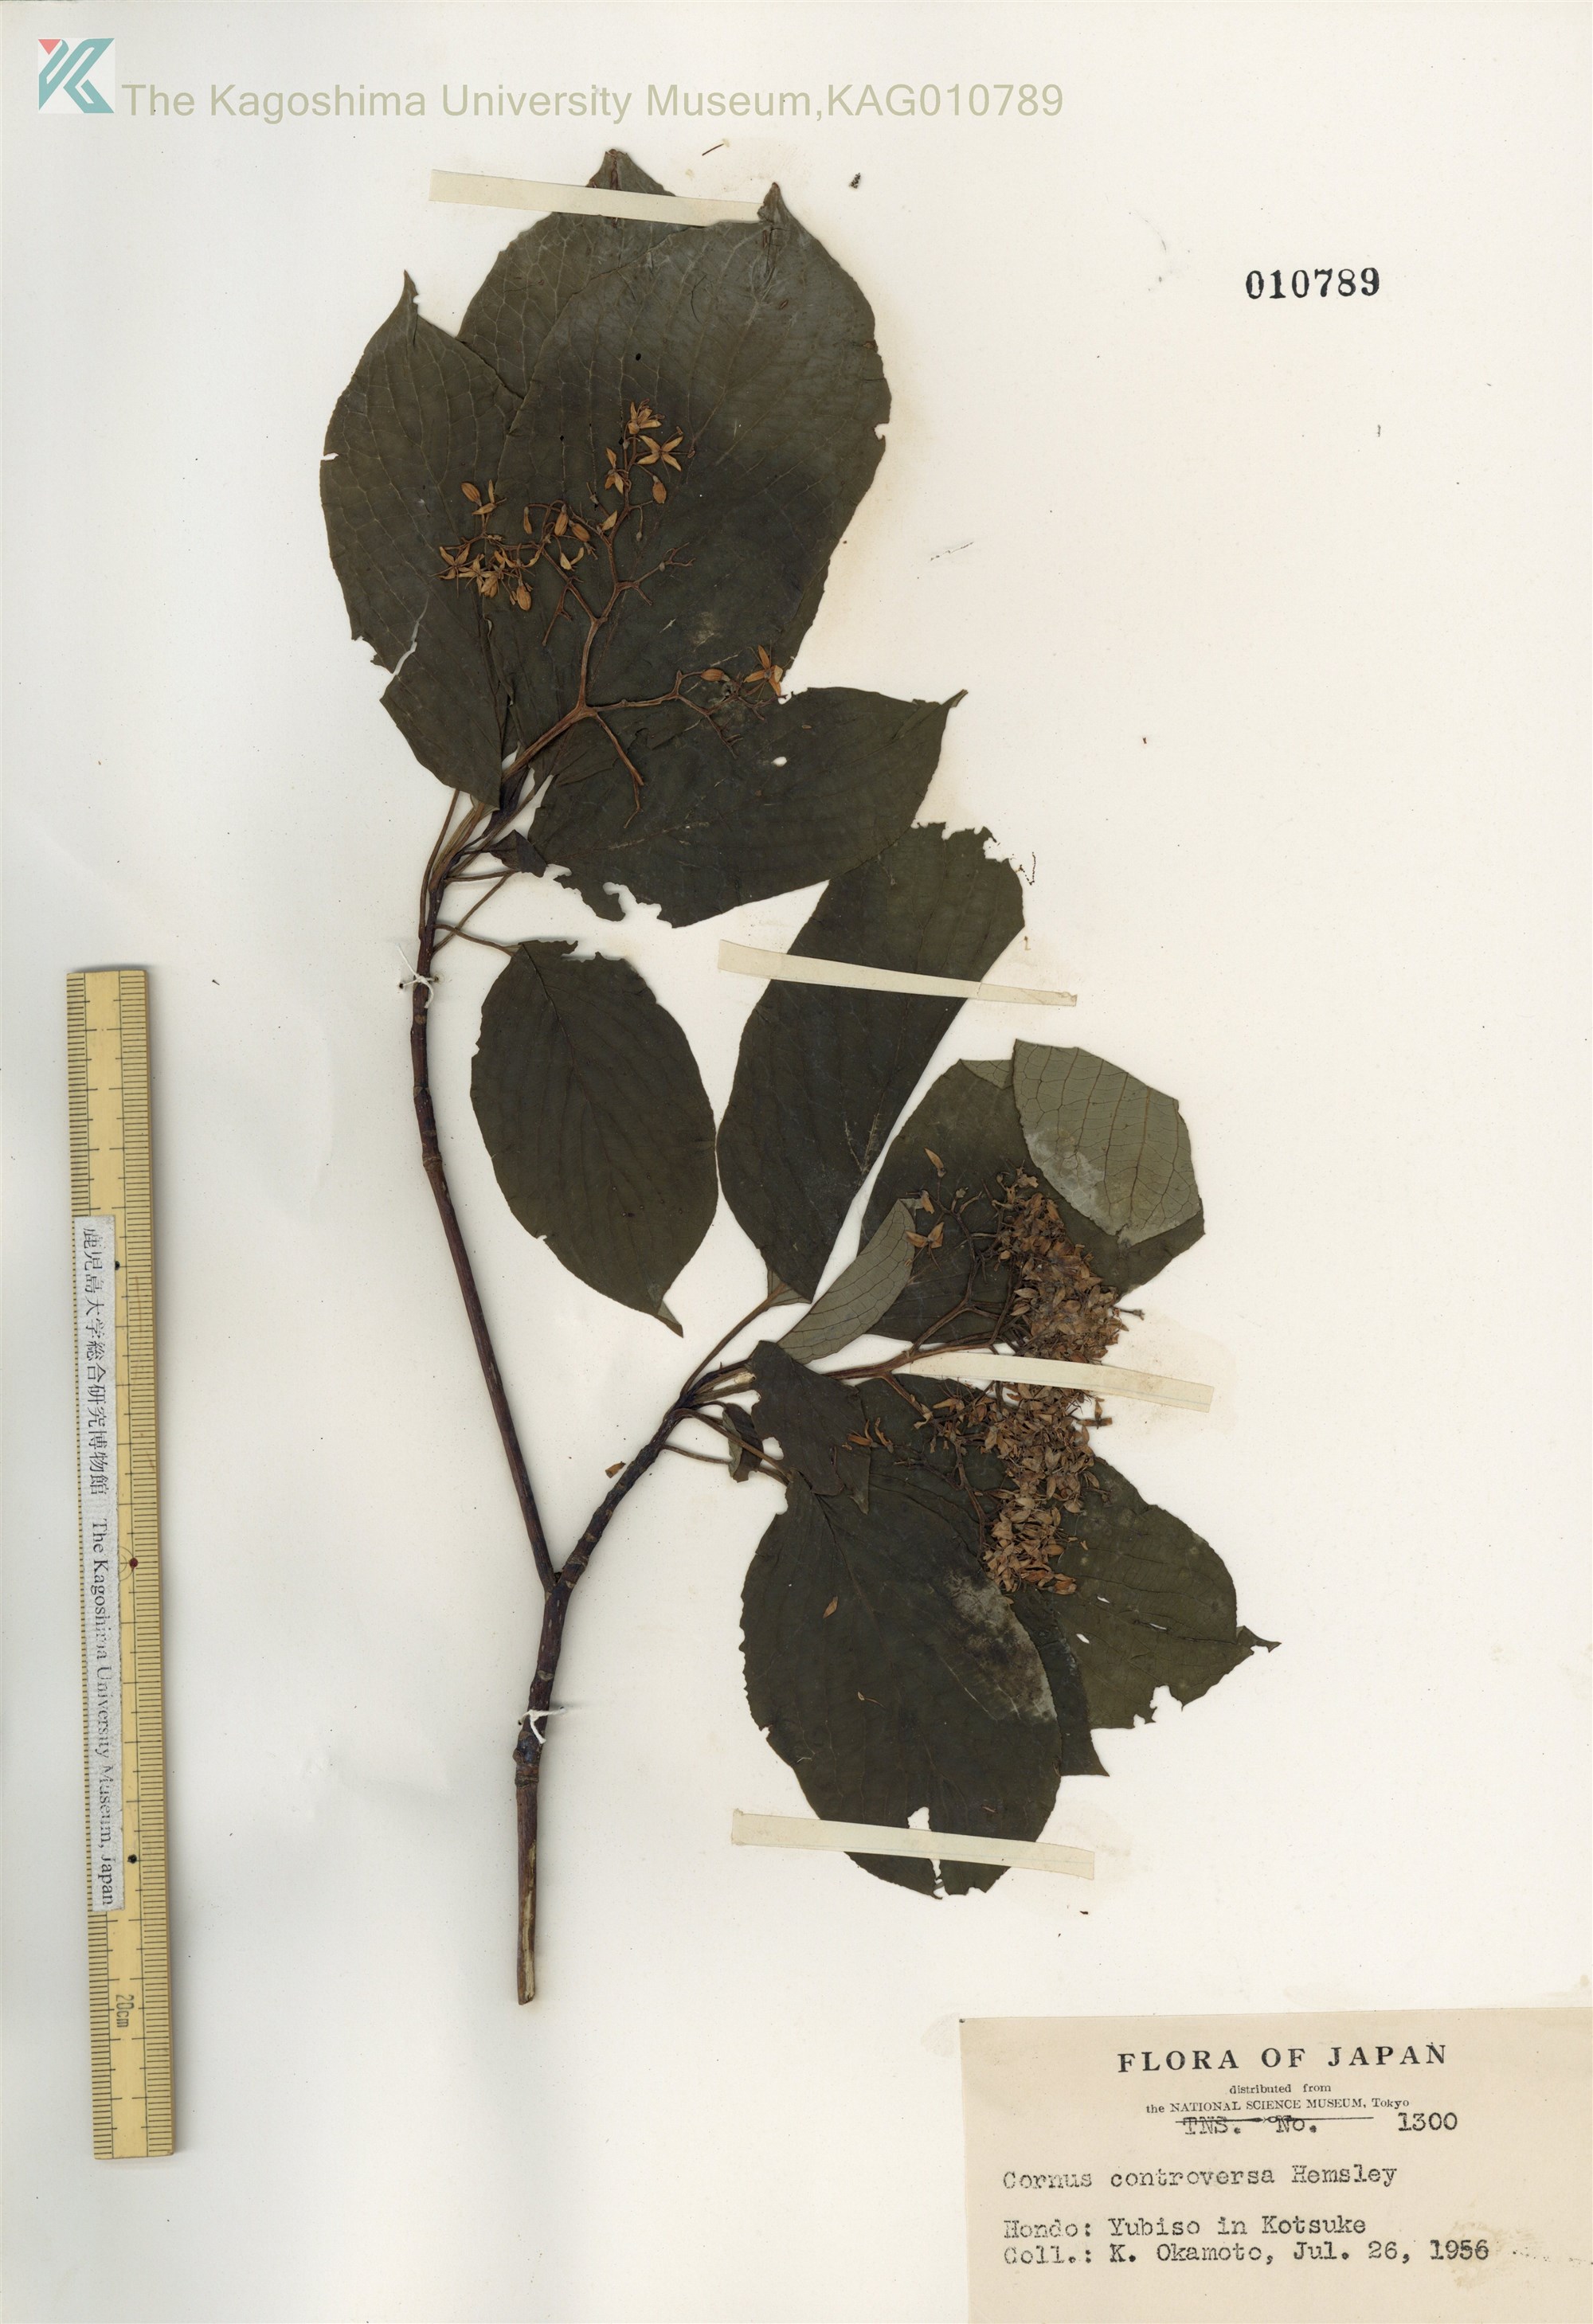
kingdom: Plantae
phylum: Tracheophyta
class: Magnoliopsida
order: Cornales
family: Cornaceae
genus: Cornus
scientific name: Cornus controversa
